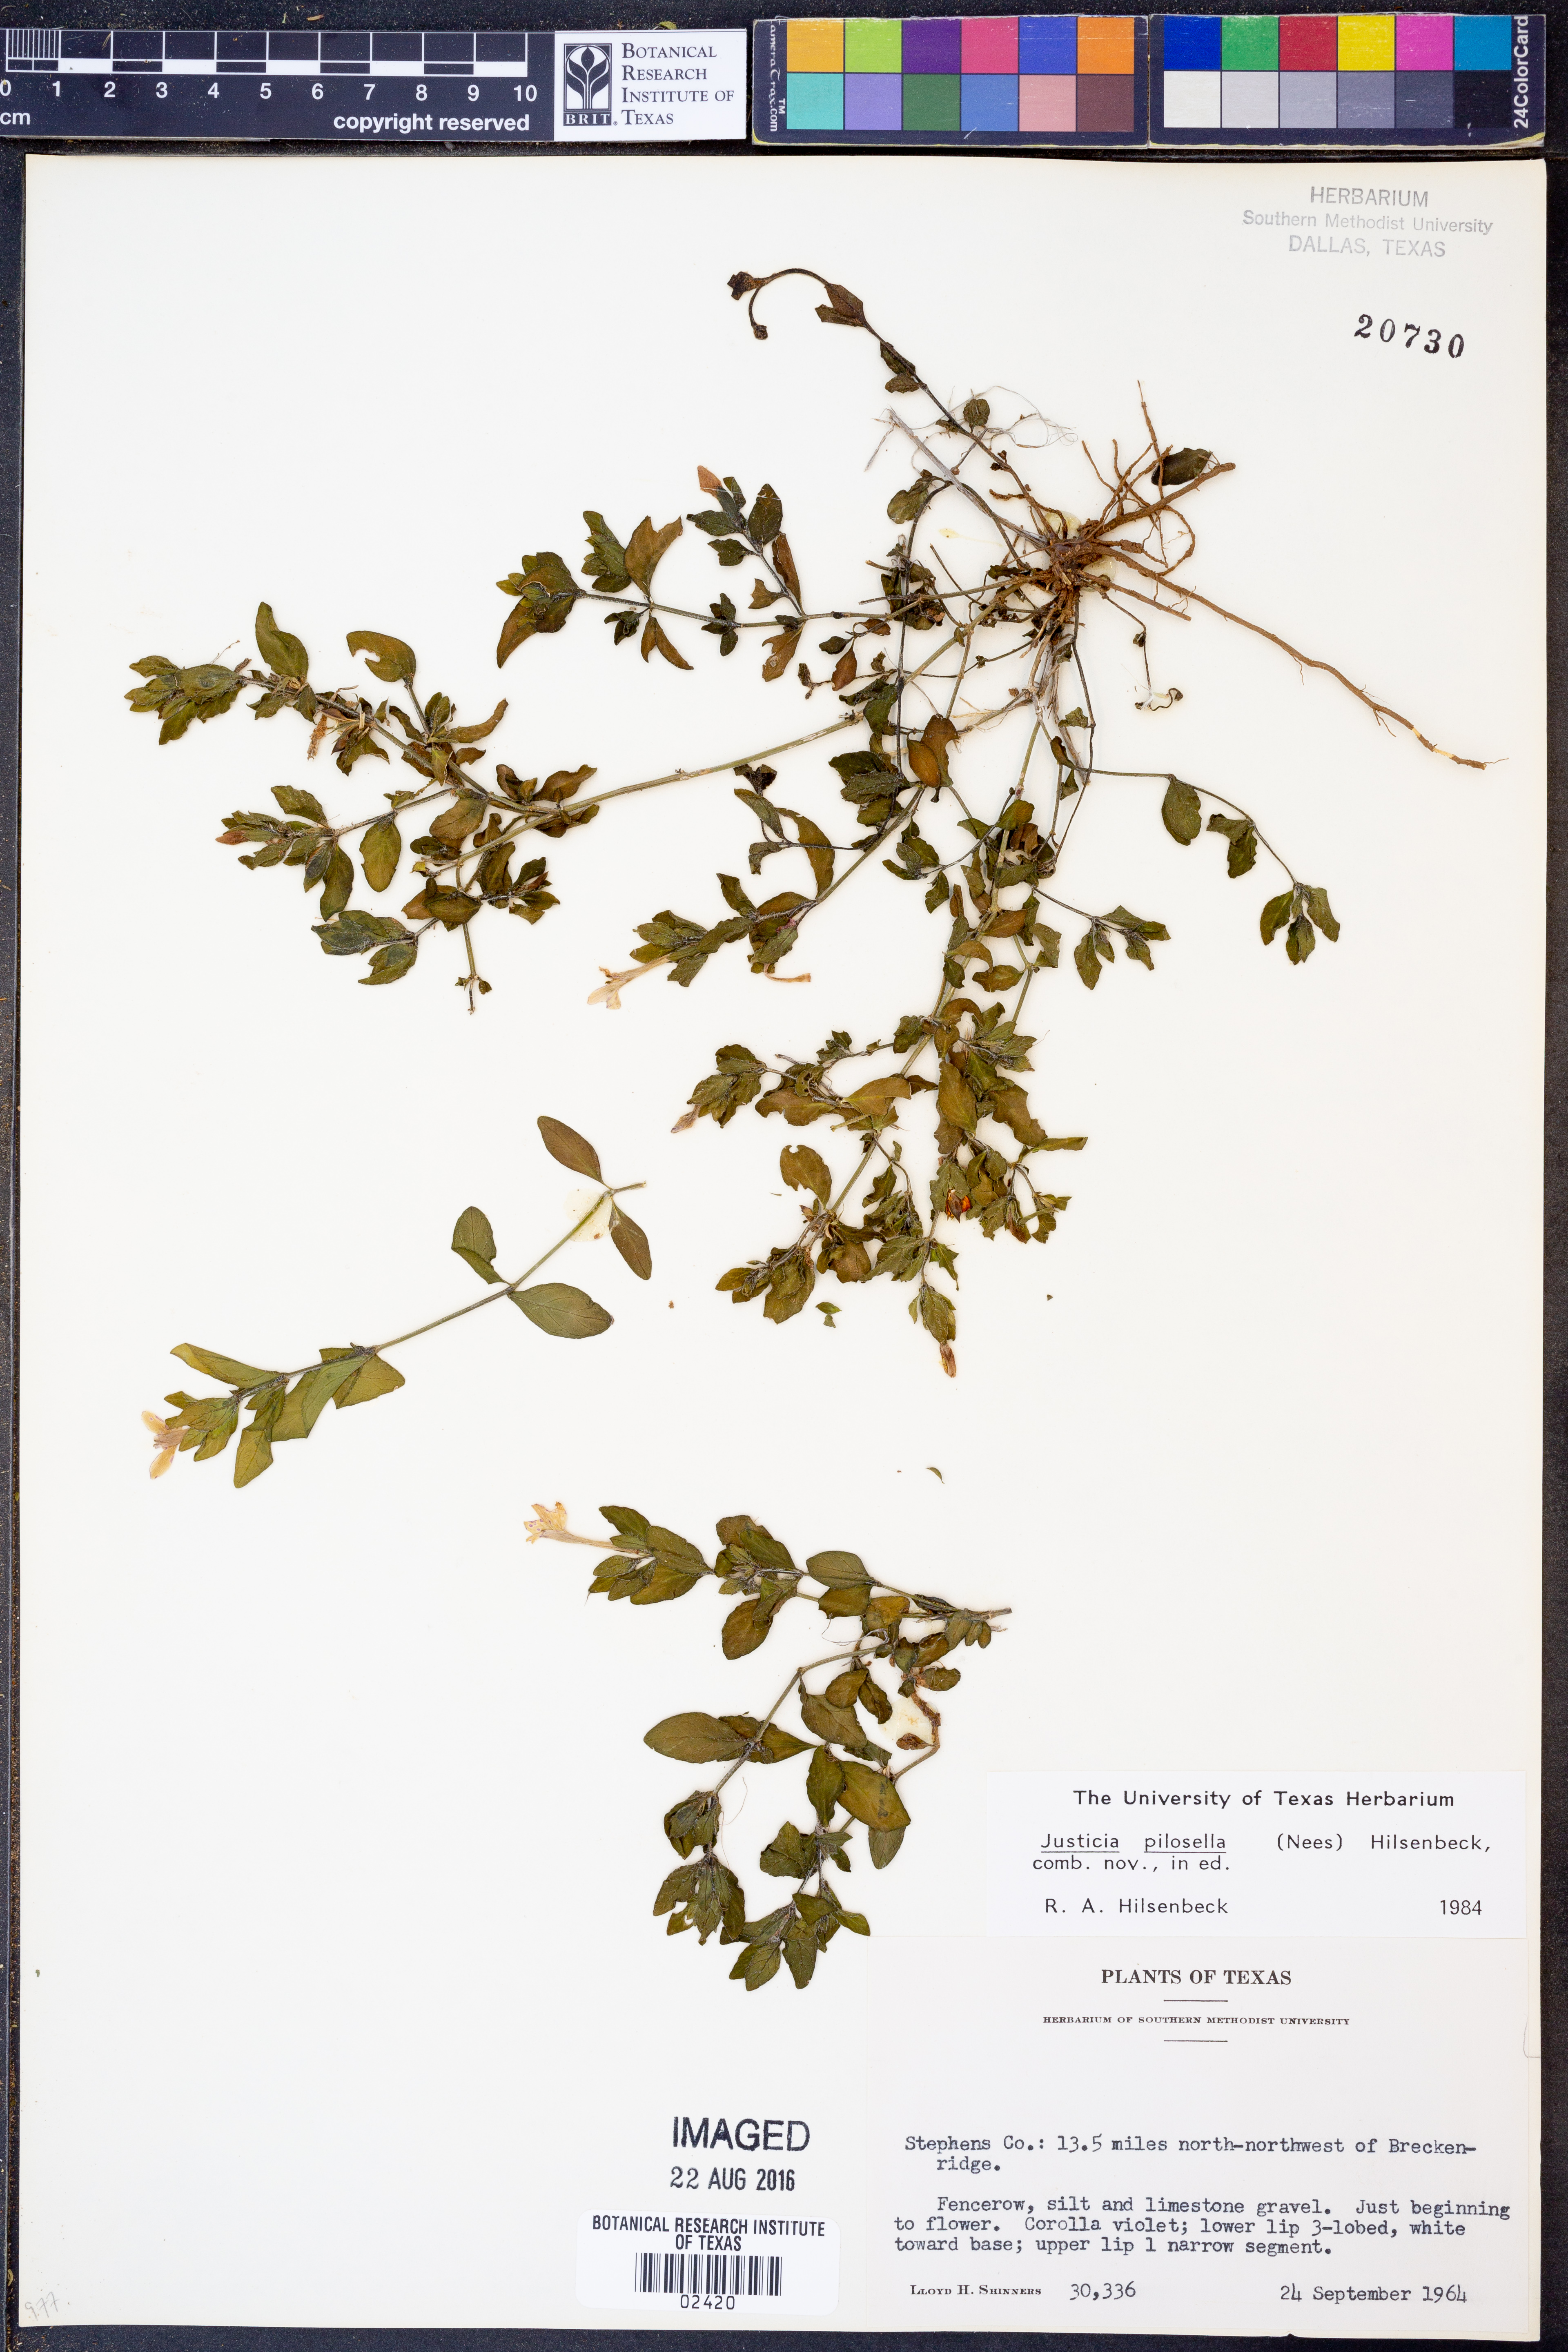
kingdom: Plantae
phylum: Tracheophyta
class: Magnoliopsida
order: Lamiales
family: Acanthaceae
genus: Justicia
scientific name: Justicia pilosella
